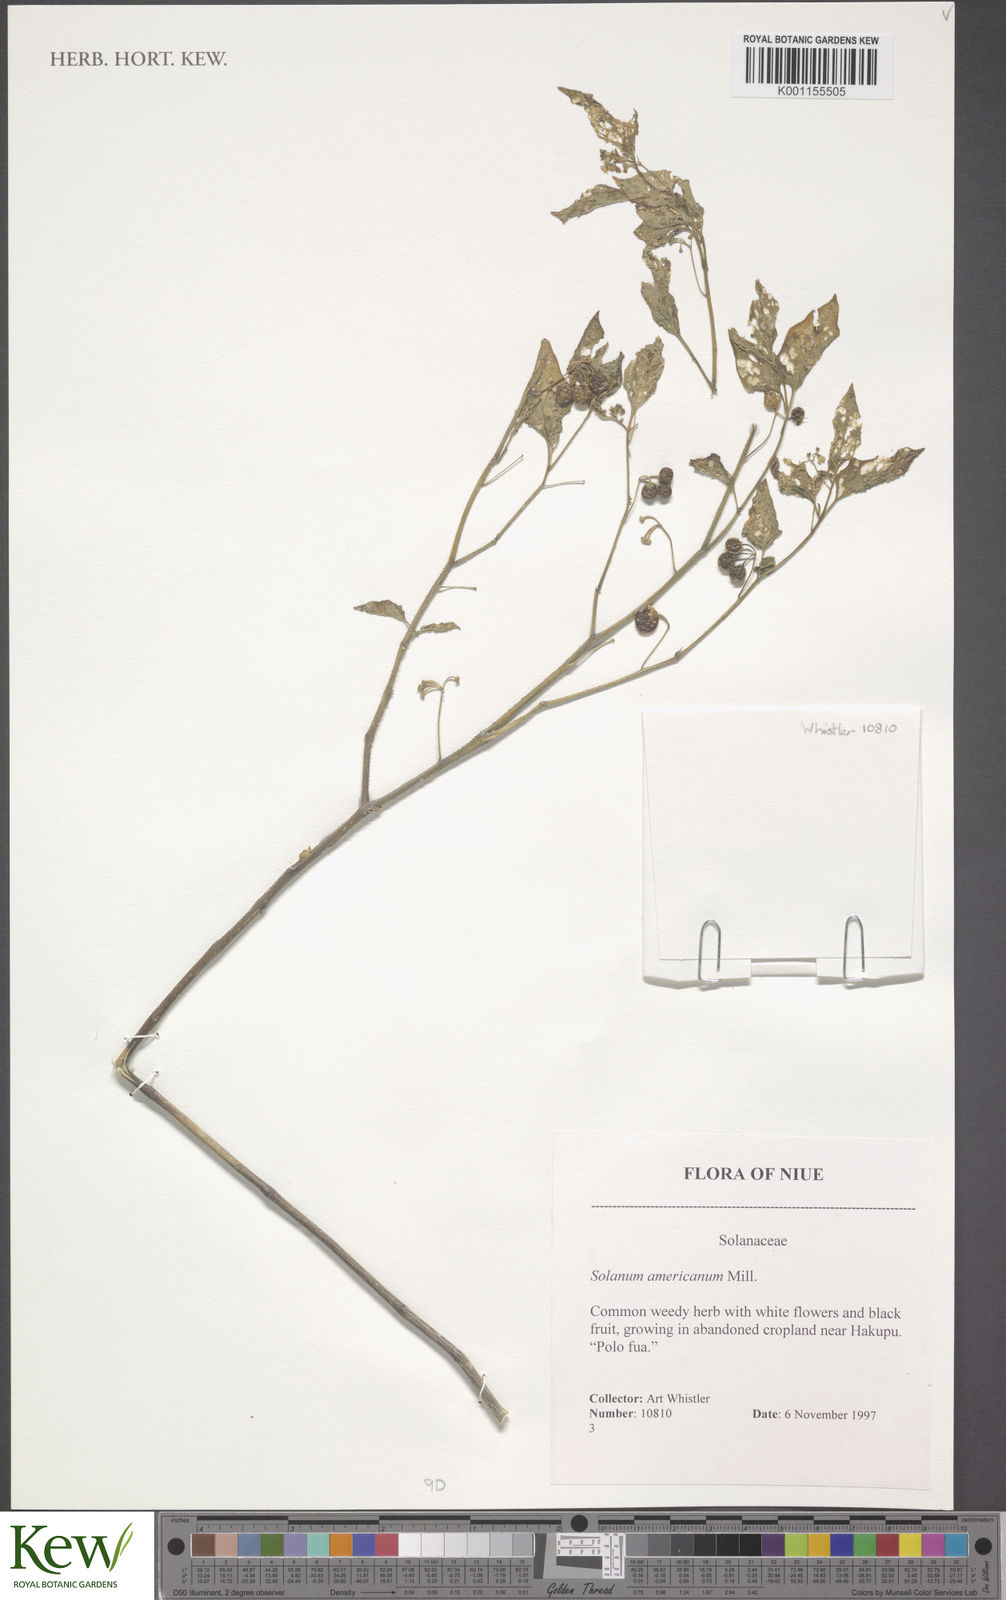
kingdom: Plantae
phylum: Tracheophyta
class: Magnoliopsida
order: Solanales
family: Solanaceae
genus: Solanum
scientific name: Solanum americanum
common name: American black nightshade
